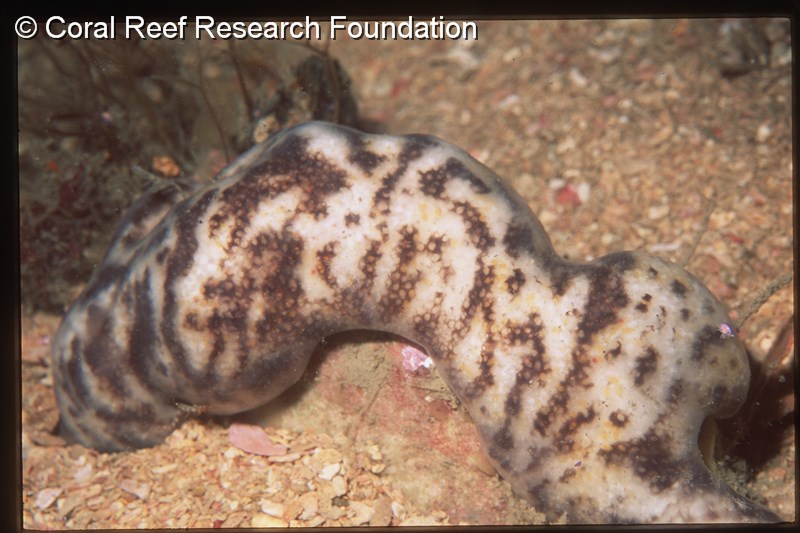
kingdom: Animalia
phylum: Chordata
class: Ascidiacea
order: Aplousobranchia
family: Polycitoridae
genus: Cystodytes
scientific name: Cystodytes
